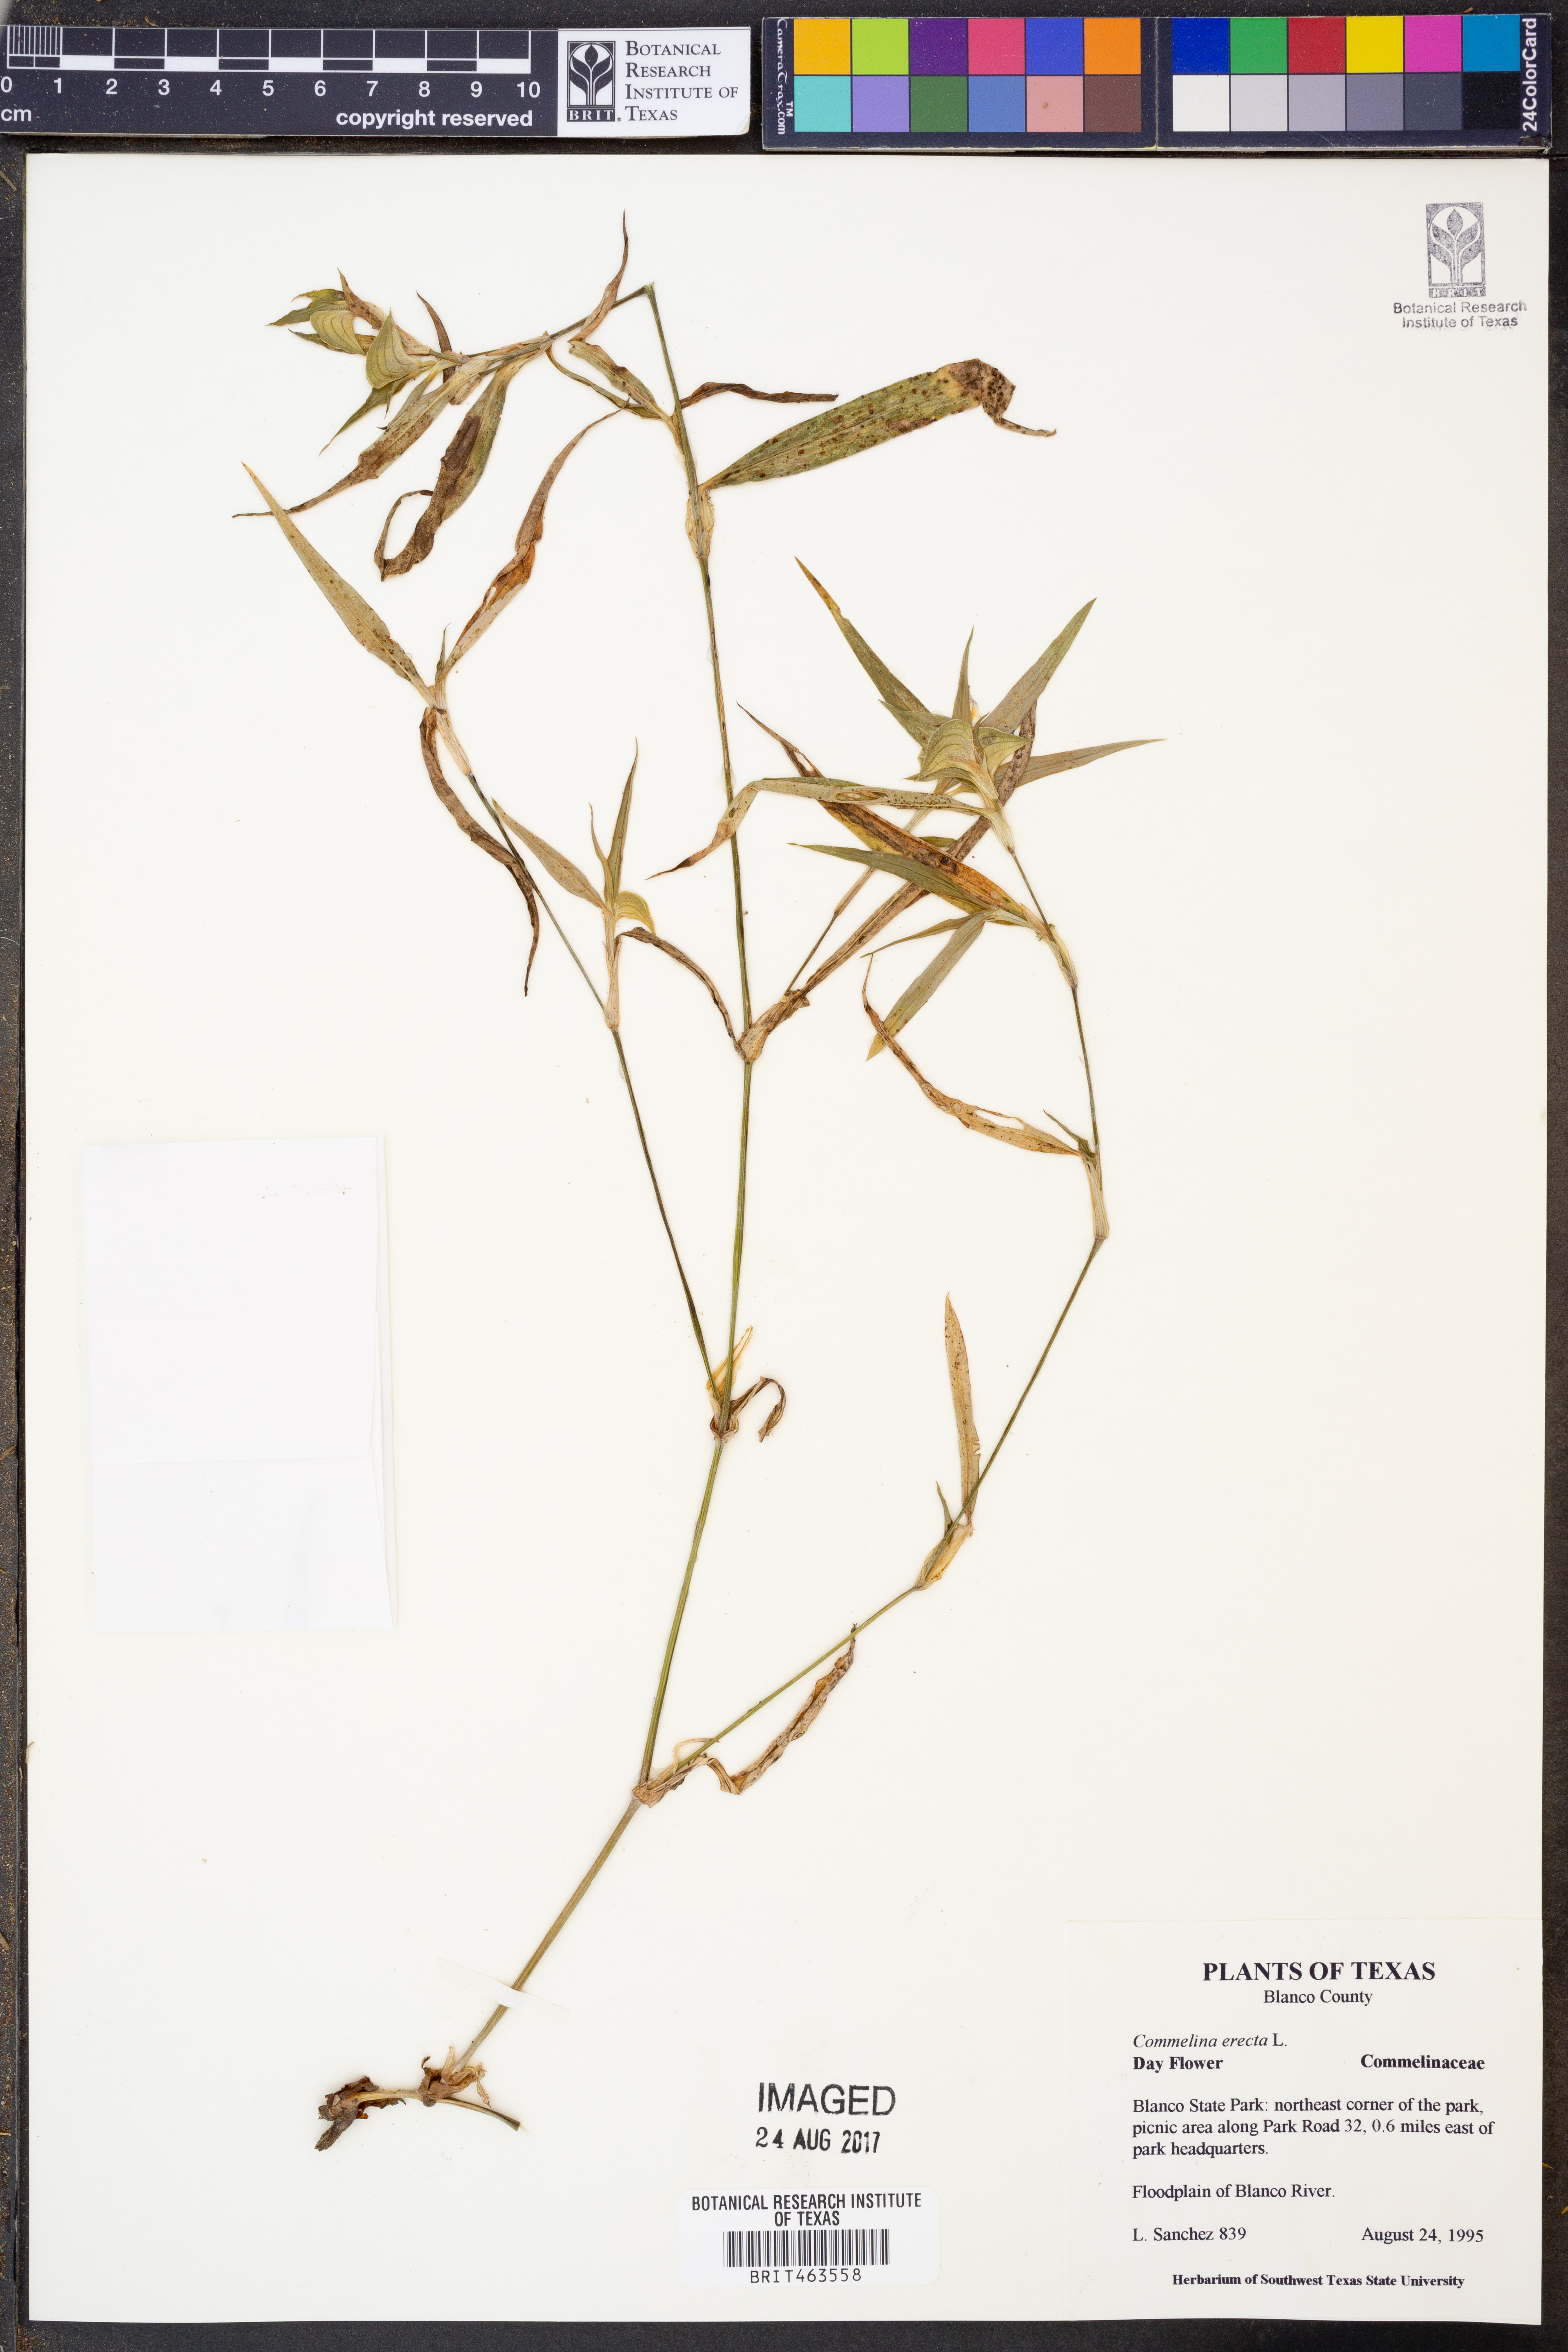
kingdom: Plantae
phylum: Tracheophyta
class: Liliopsida
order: Commelinales
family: Commelinaceae
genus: Commelina
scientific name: Commelina erecta
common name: Blousel blommetjie
